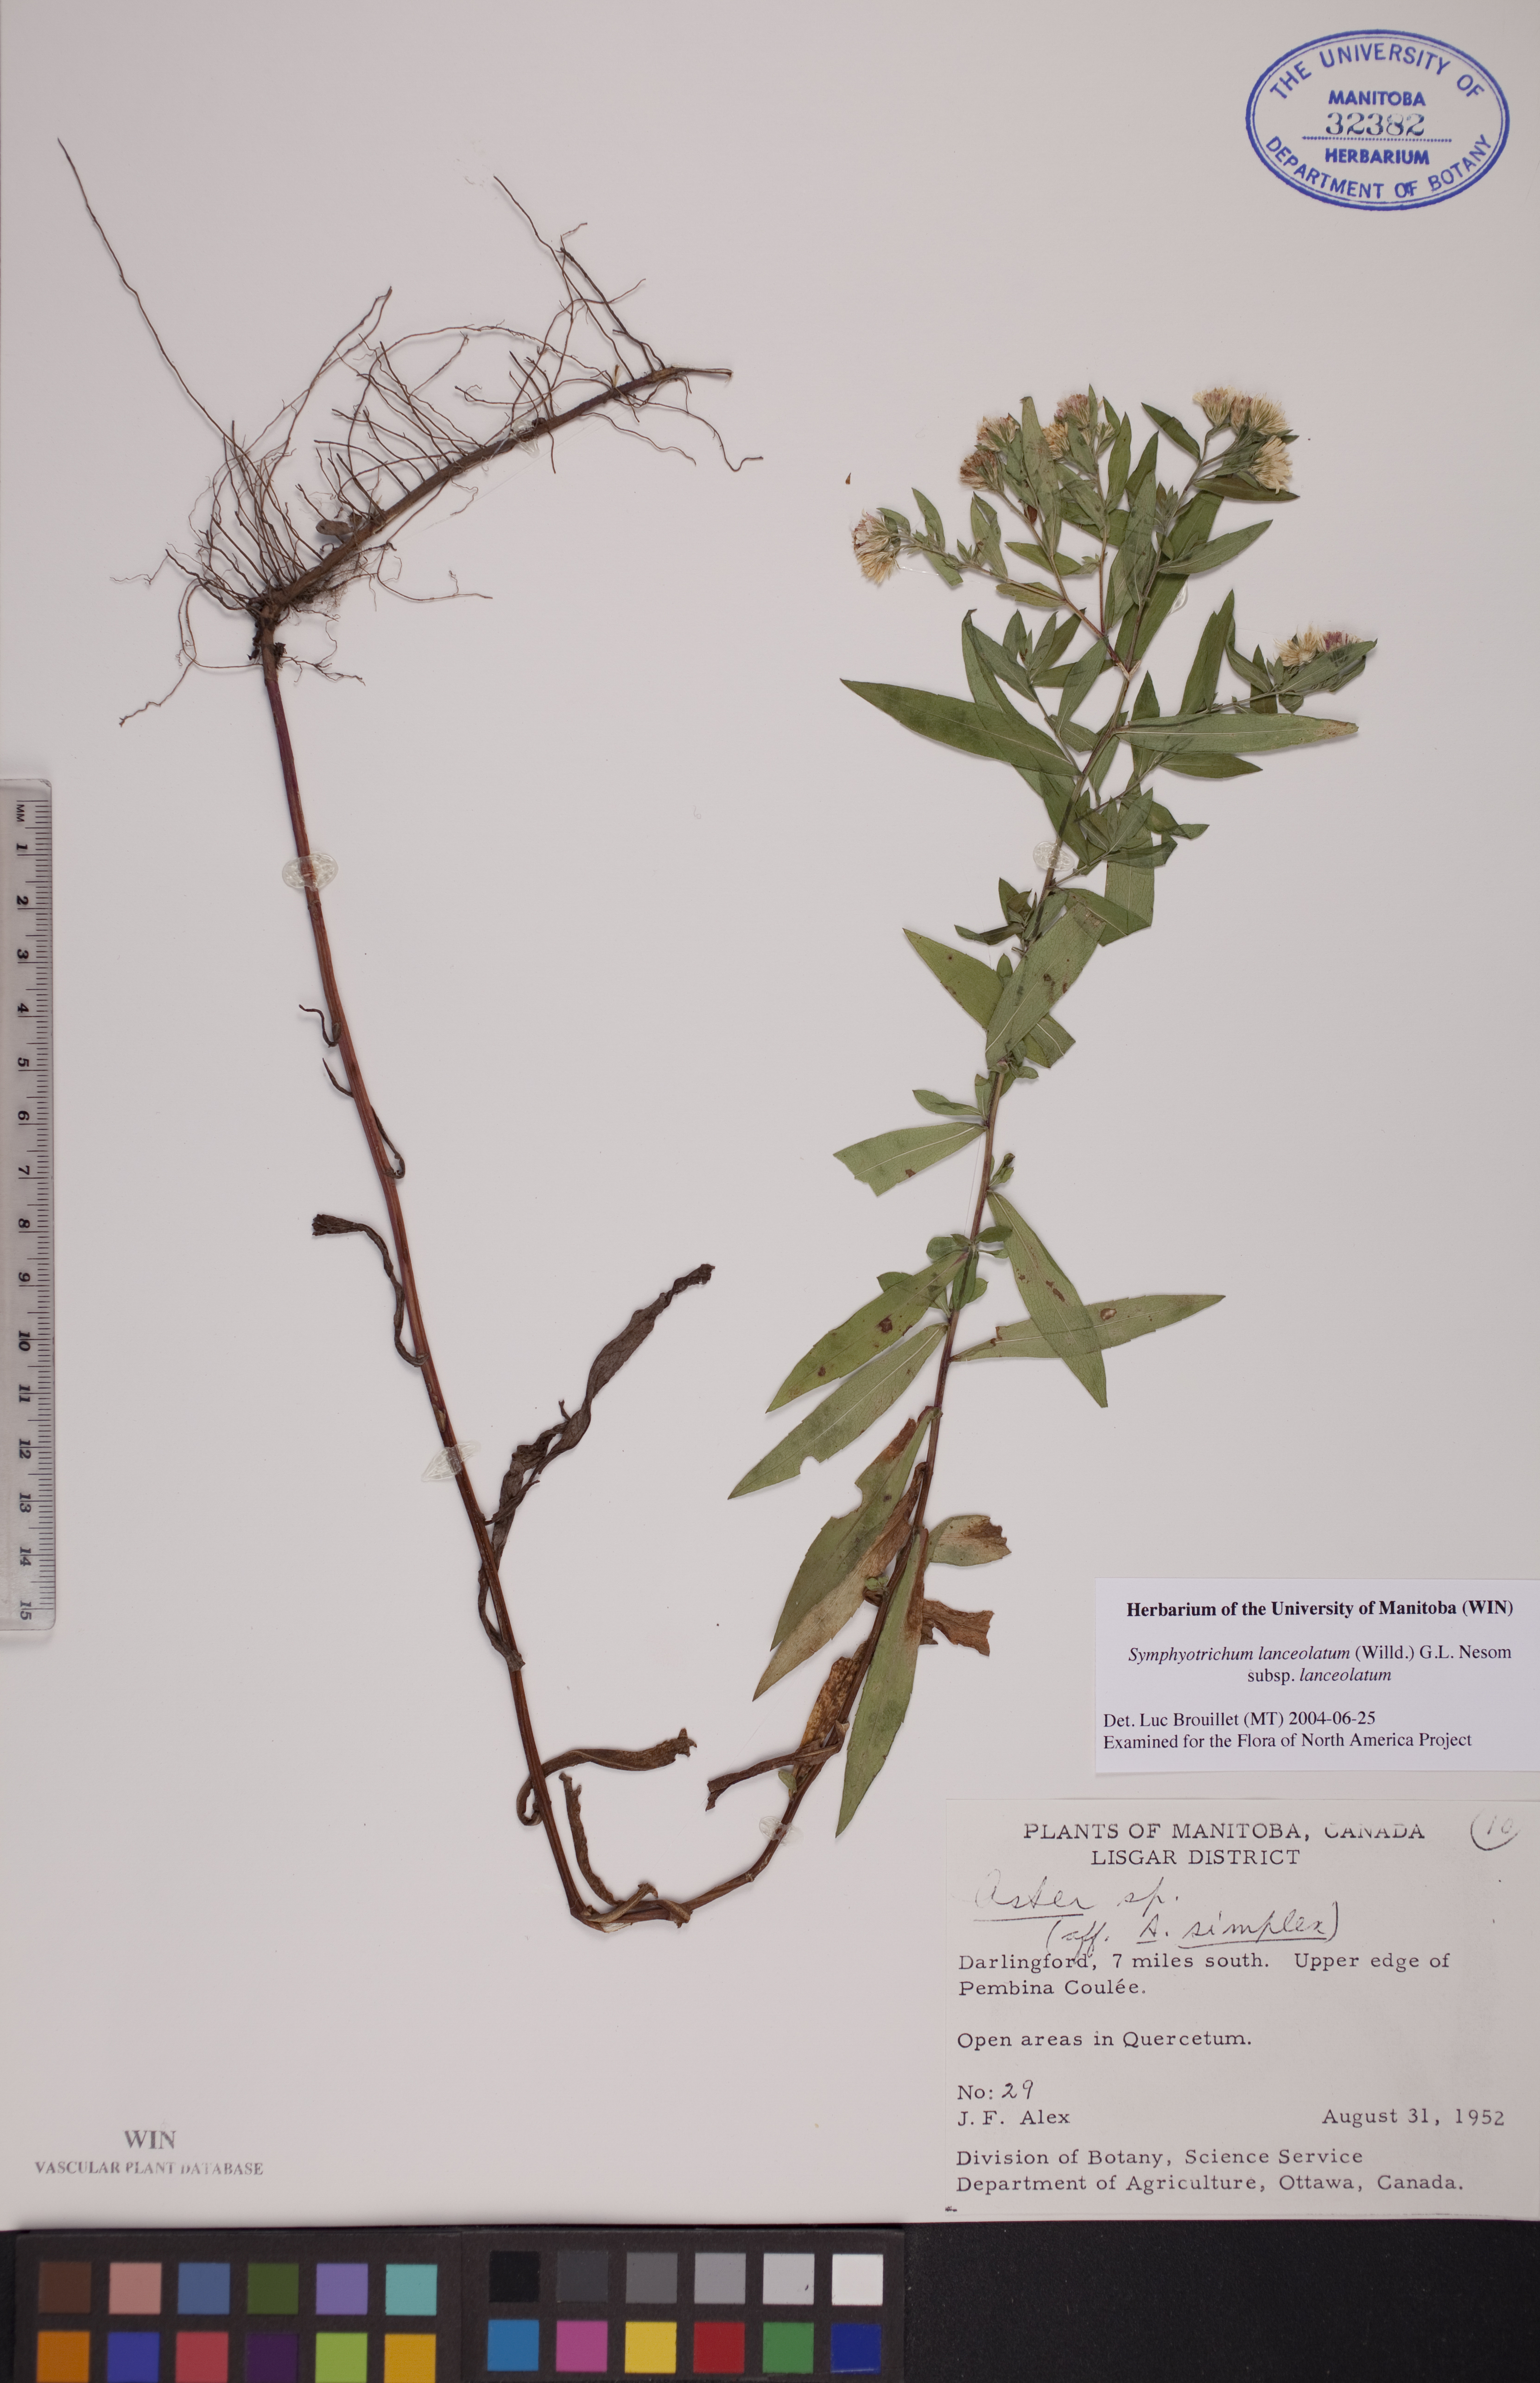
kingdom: Plantae
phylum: Tracheophyta
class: Magnoliopsida
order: Asterales
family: Asteraceae
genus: Symphyotrichum
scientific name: Symphyotrichum lanceolatum
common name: Panicled aster
